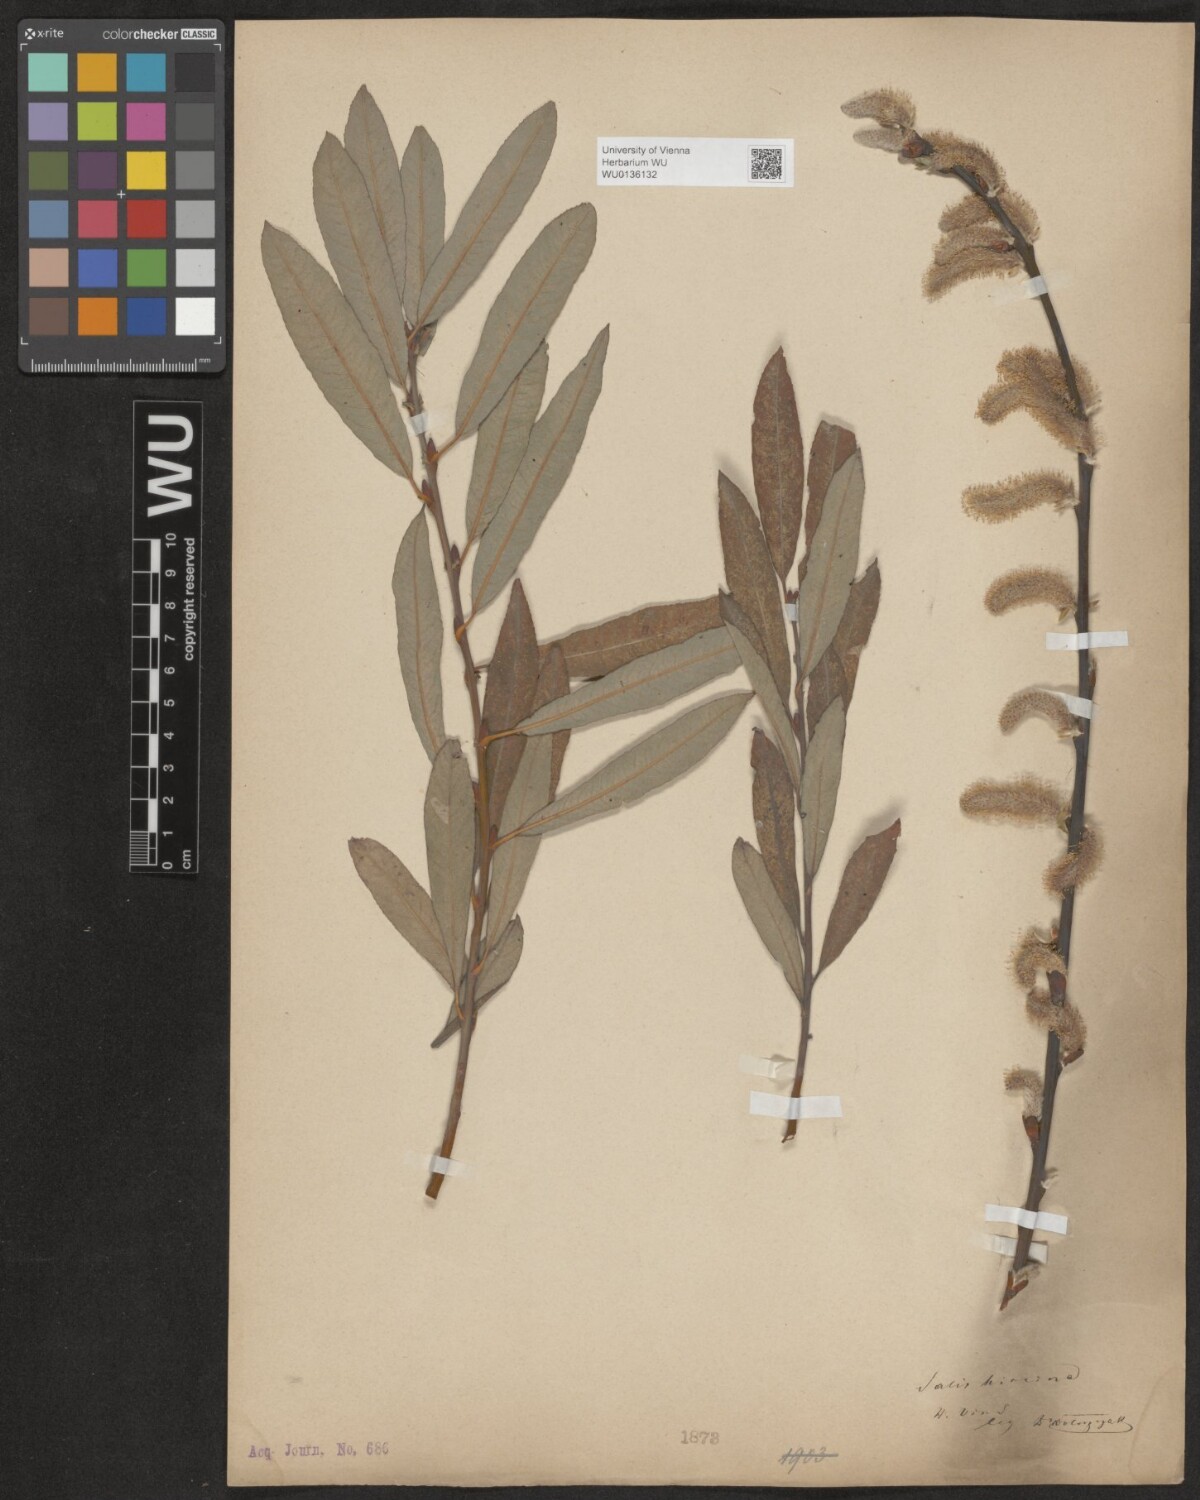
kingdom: Plantae
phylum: Tracheophyta
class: Magnoliopsida
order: Malpighiales
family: Salicaceae
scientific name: Salicaceae
